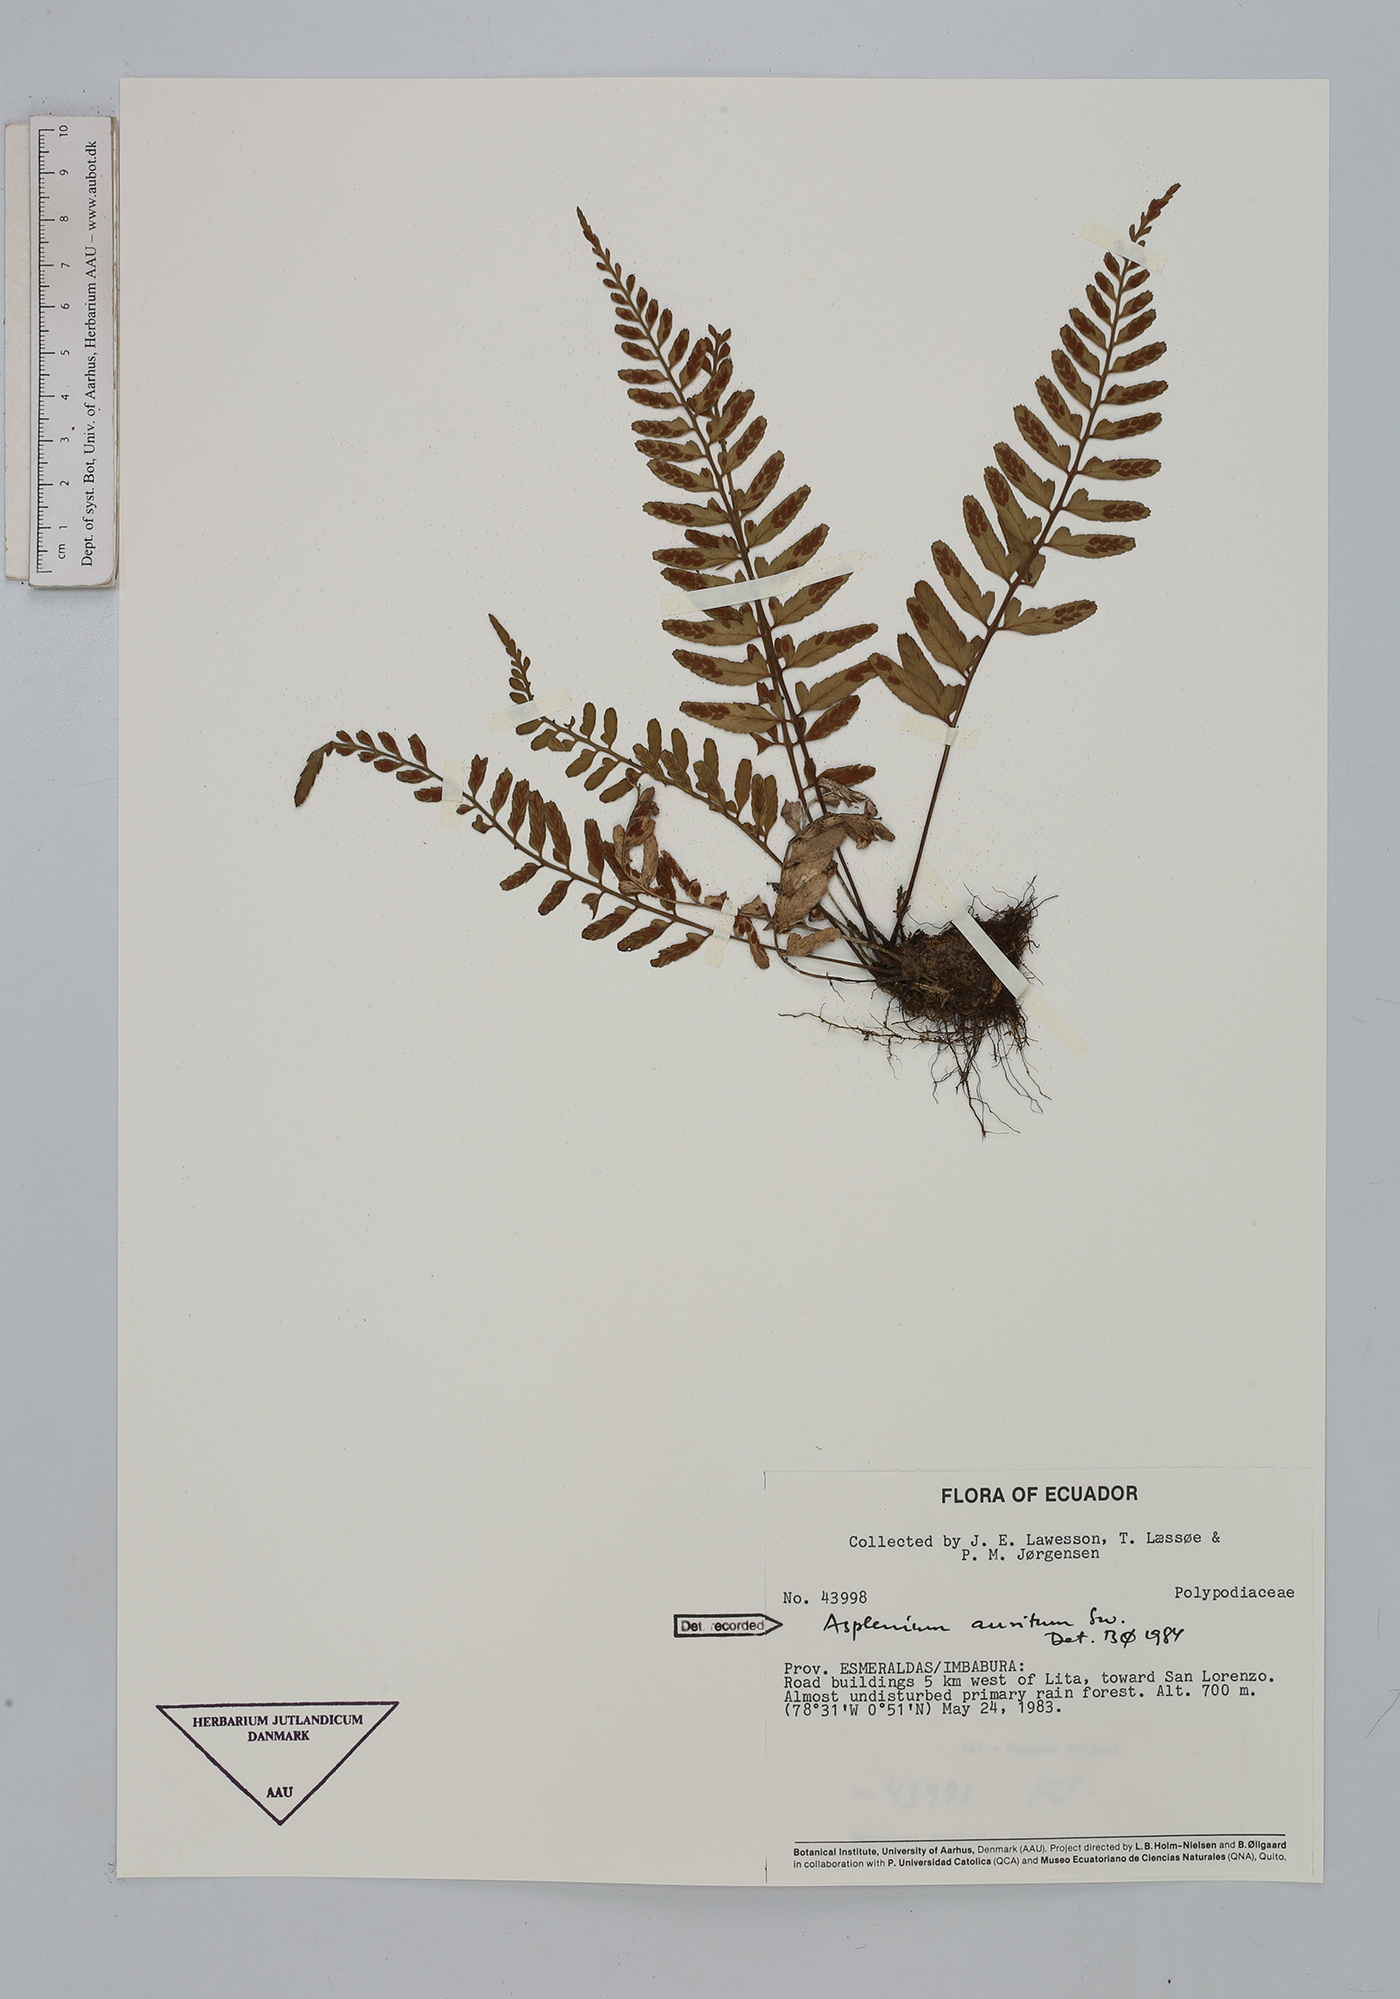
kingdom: Plantae
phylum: Tracheophyta
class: Polypodiopsida
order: Polypodiales
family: Aspleniaceae
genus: Asplenium
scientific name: Asplenium auritum
